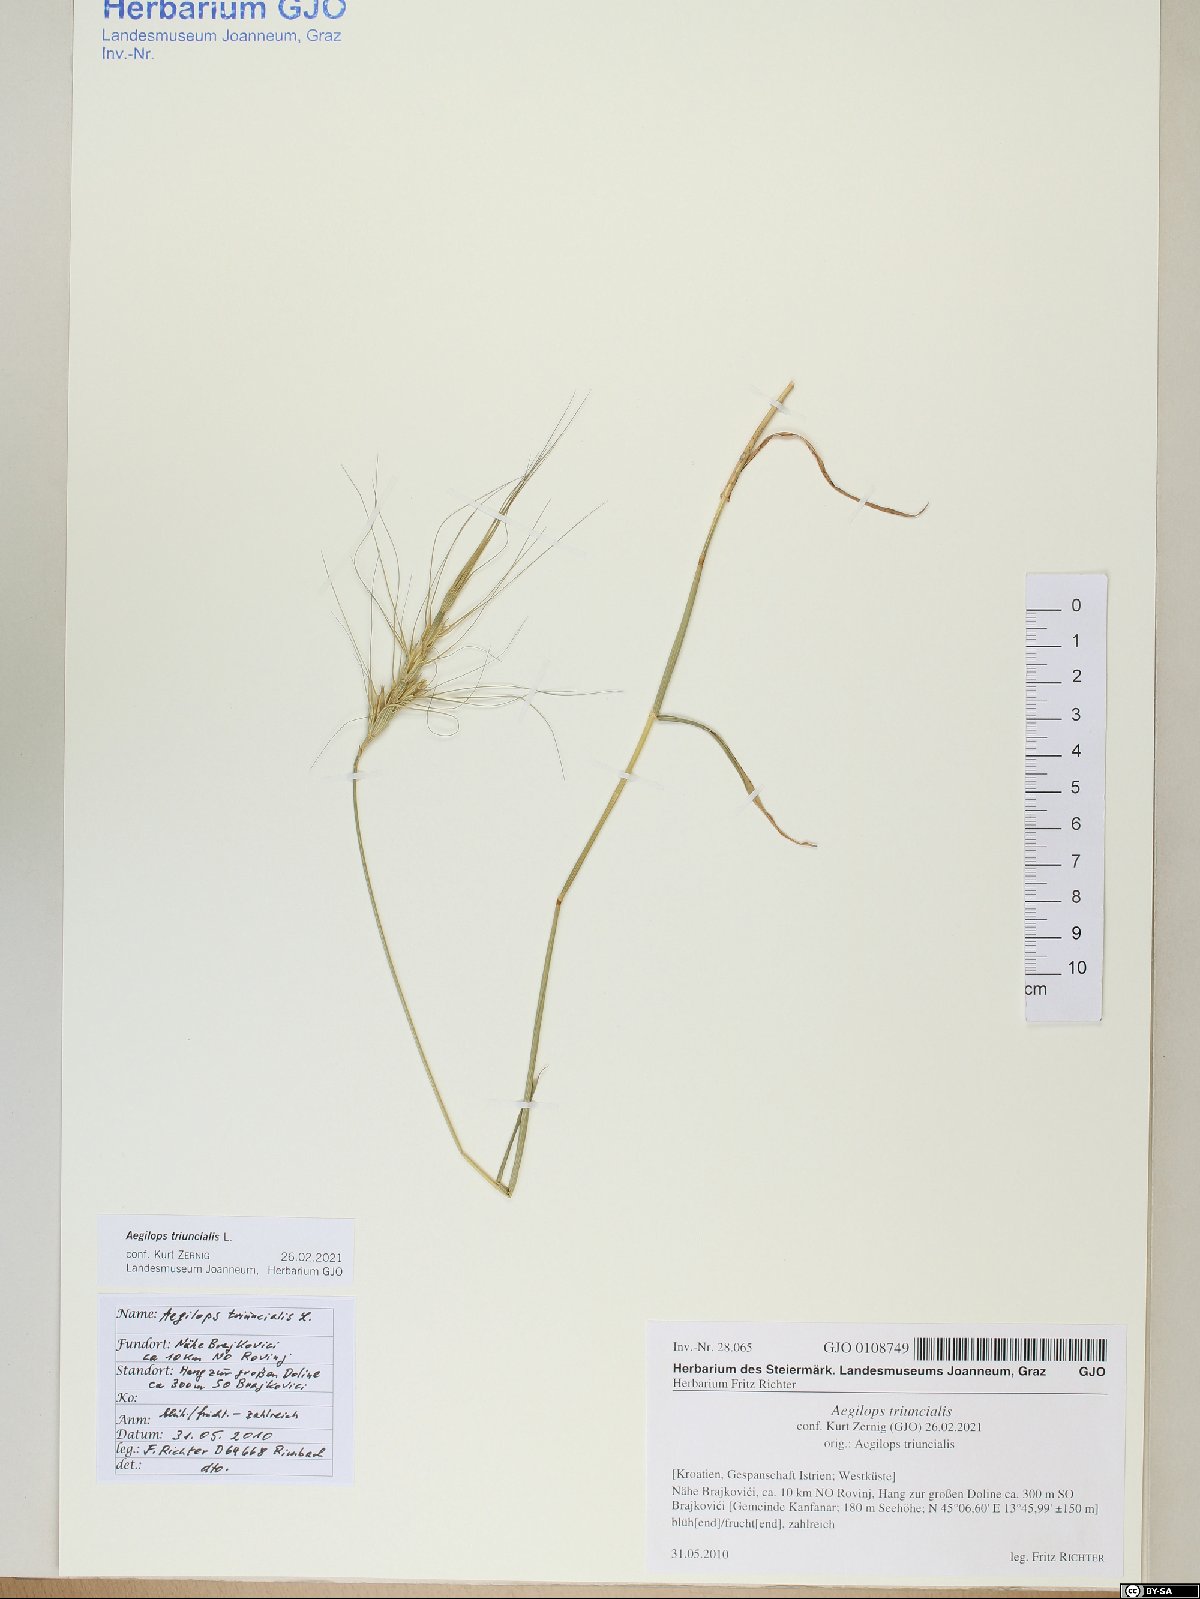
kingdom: Plantae
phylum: Tracheophyta
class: Liliopsida
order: Poales
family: Poaceae
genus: Aegilops
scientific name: Aegilops triuncialis
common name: Barb goat grass
